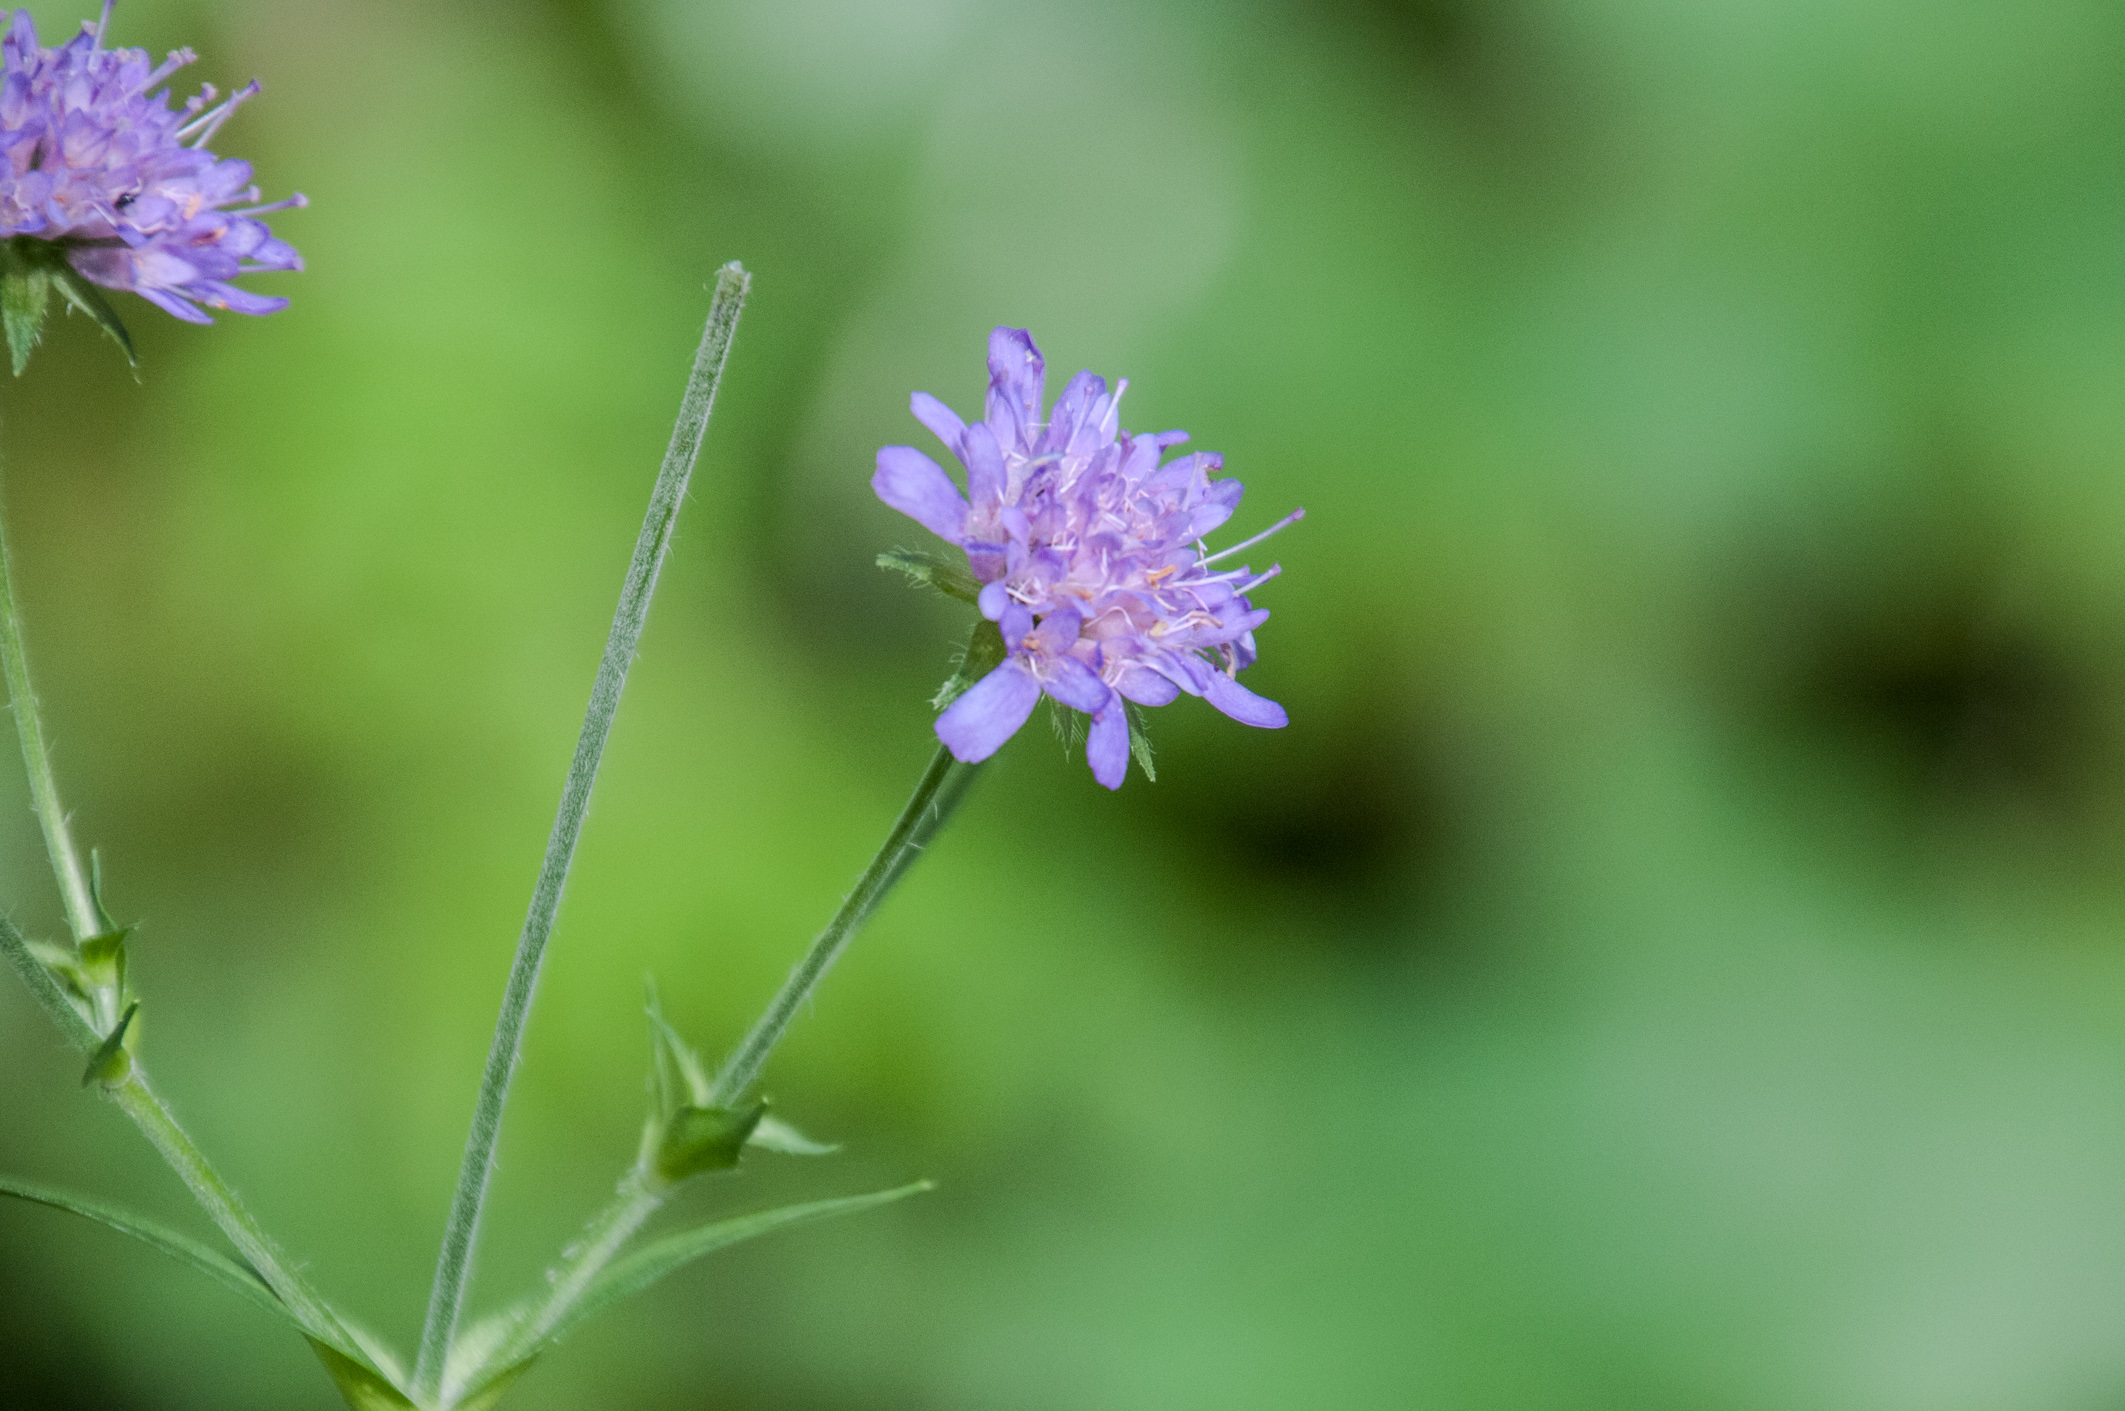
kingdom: Plantae
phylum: Tracheophyta
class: Magnoliopsida
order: Dipsacales
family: Caprifoliaceae
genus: Knautia
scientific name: Knautia dipsacifolia
